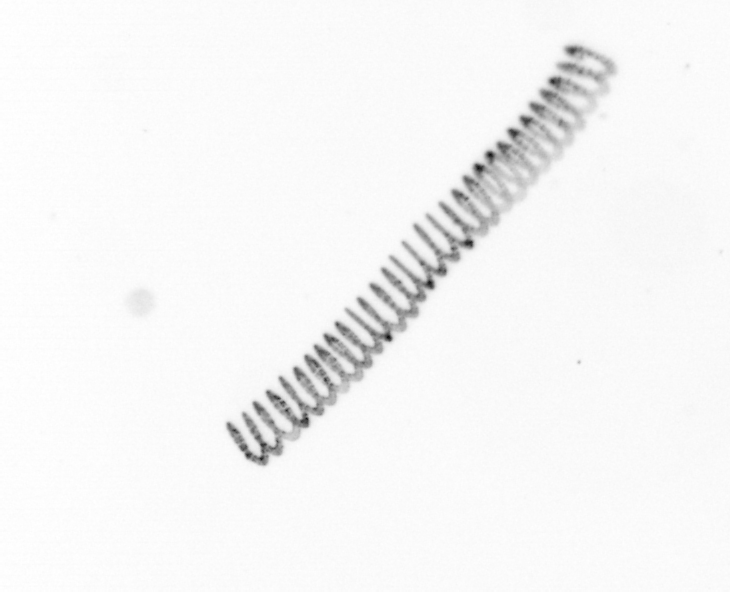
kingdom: Chromista
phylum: Ochrophyta
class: Bacillariophyceae
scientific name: Bacillariophyceae
